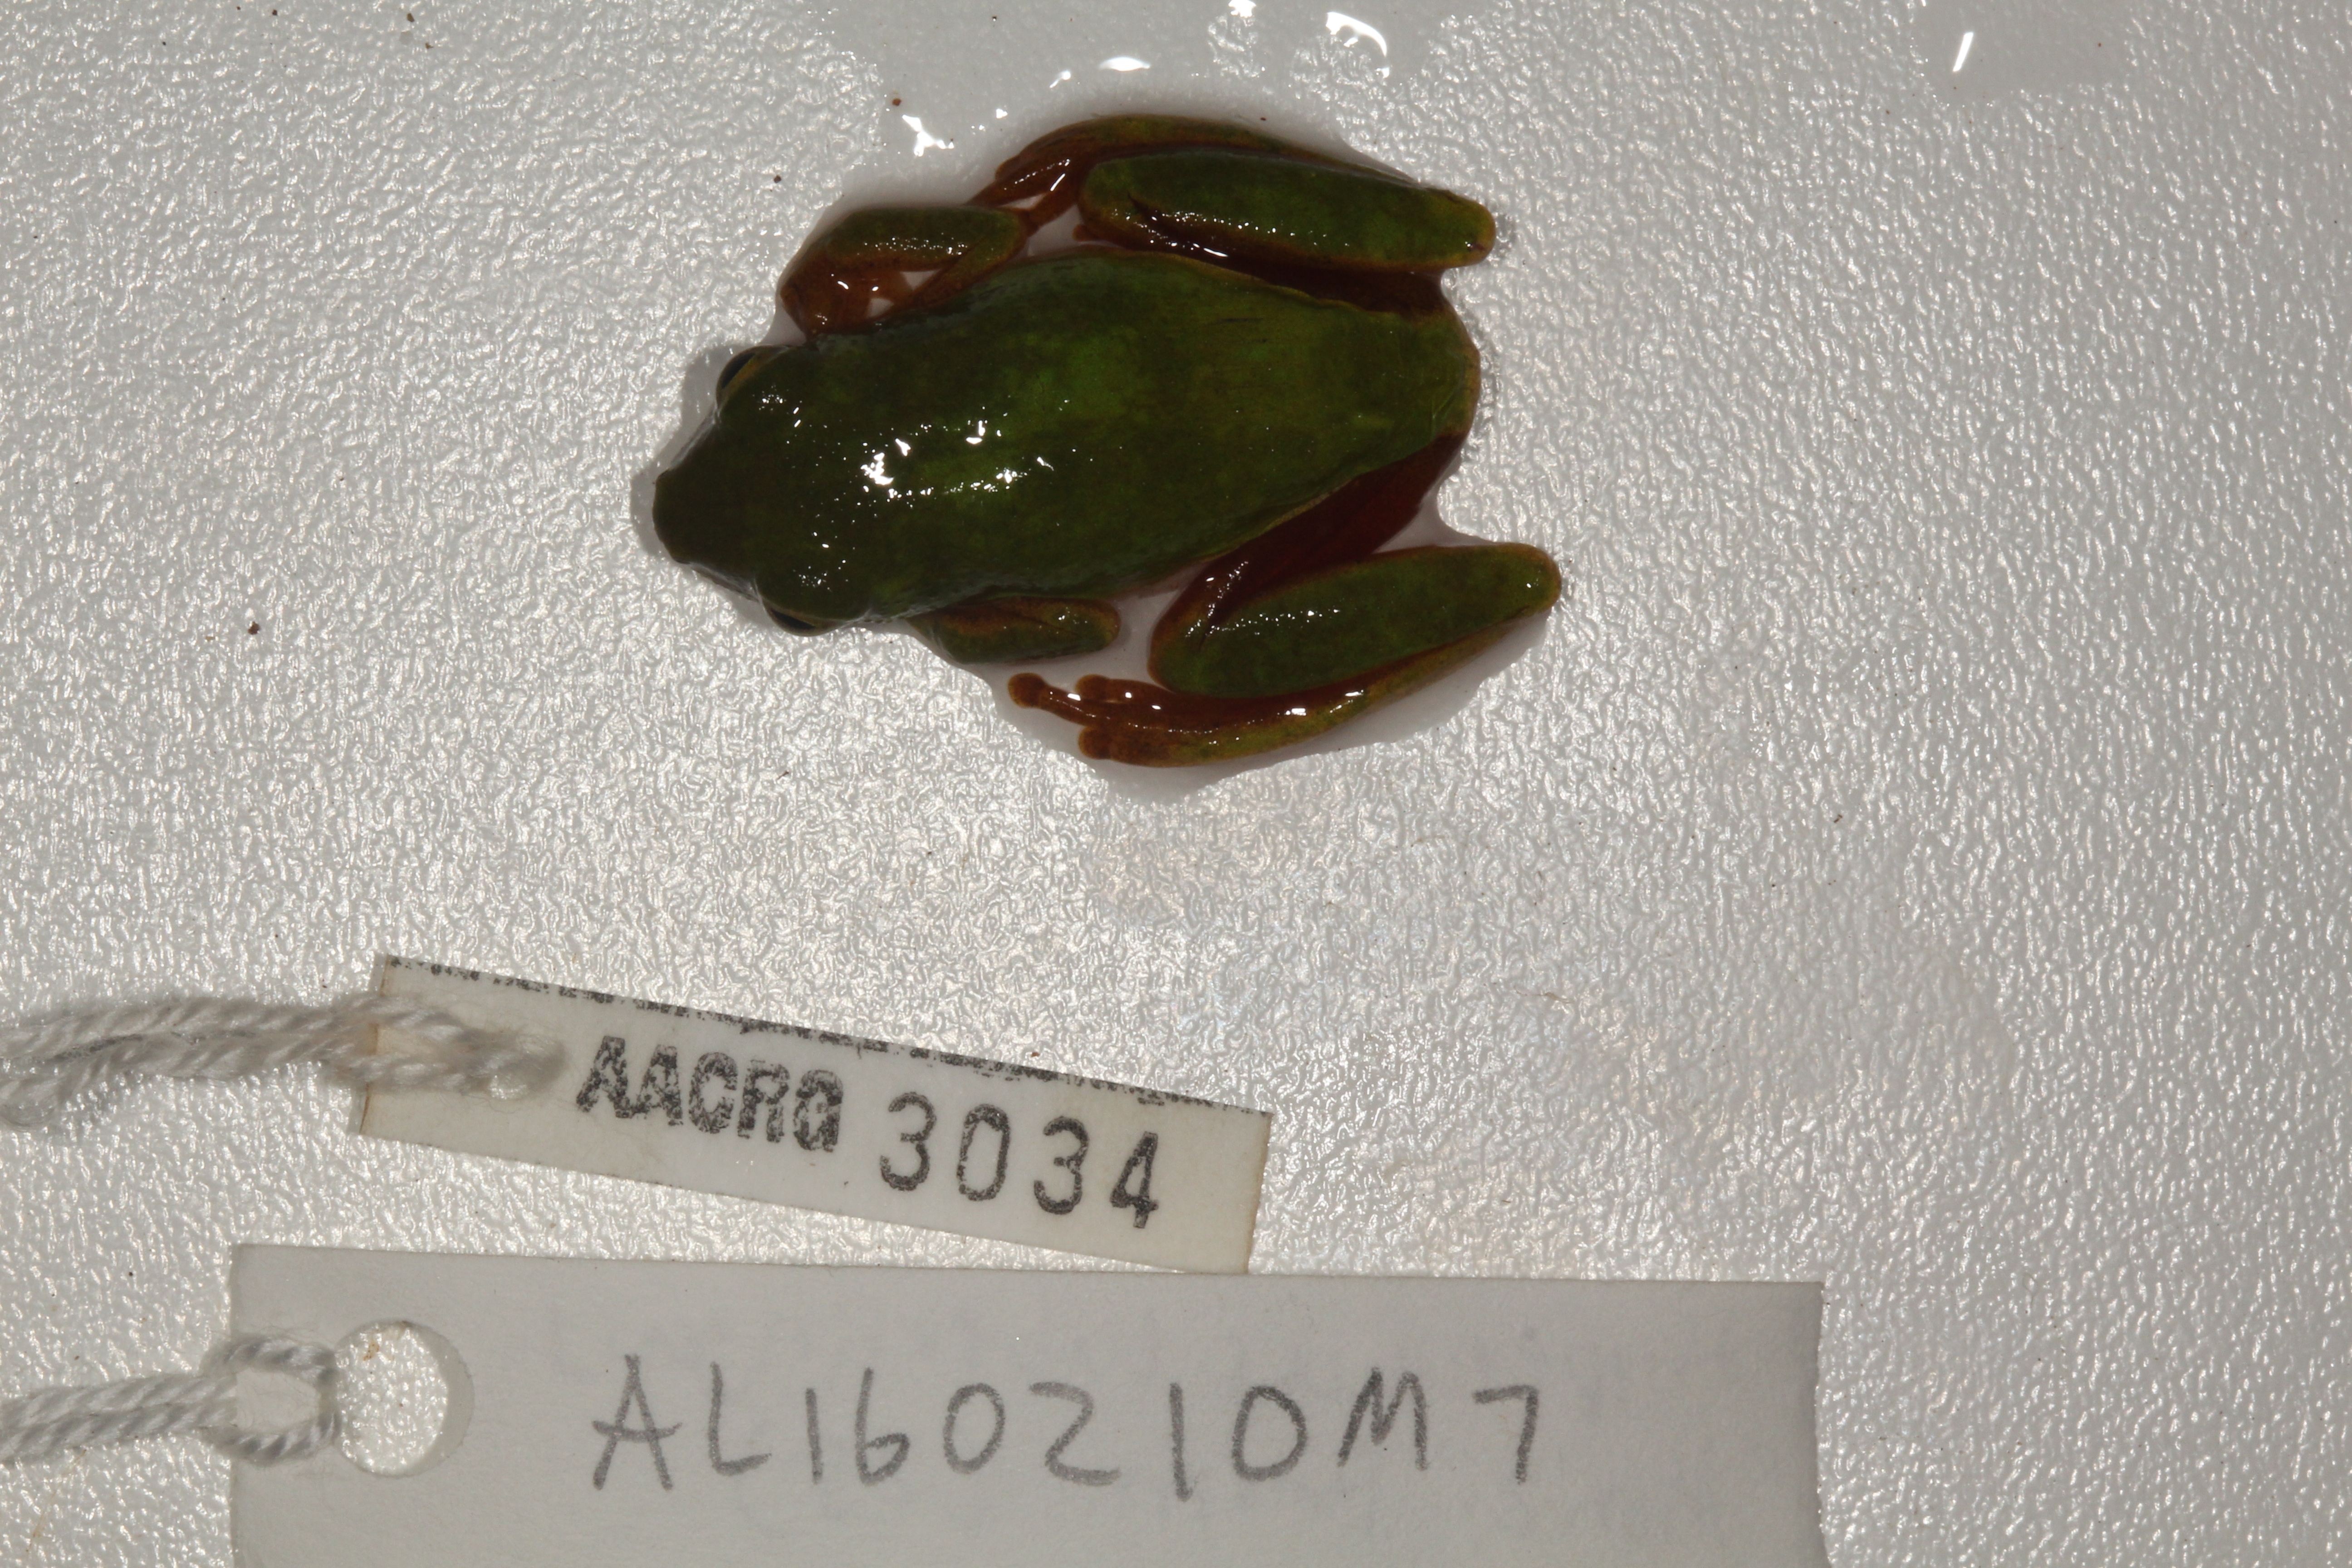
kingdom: Animalia
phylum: Chordata
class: Amphibia
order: Anura
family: Hyperoliidae
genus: Hyperolius
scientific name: Hyperolius tuberilinguis
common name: Tinker reed frog
